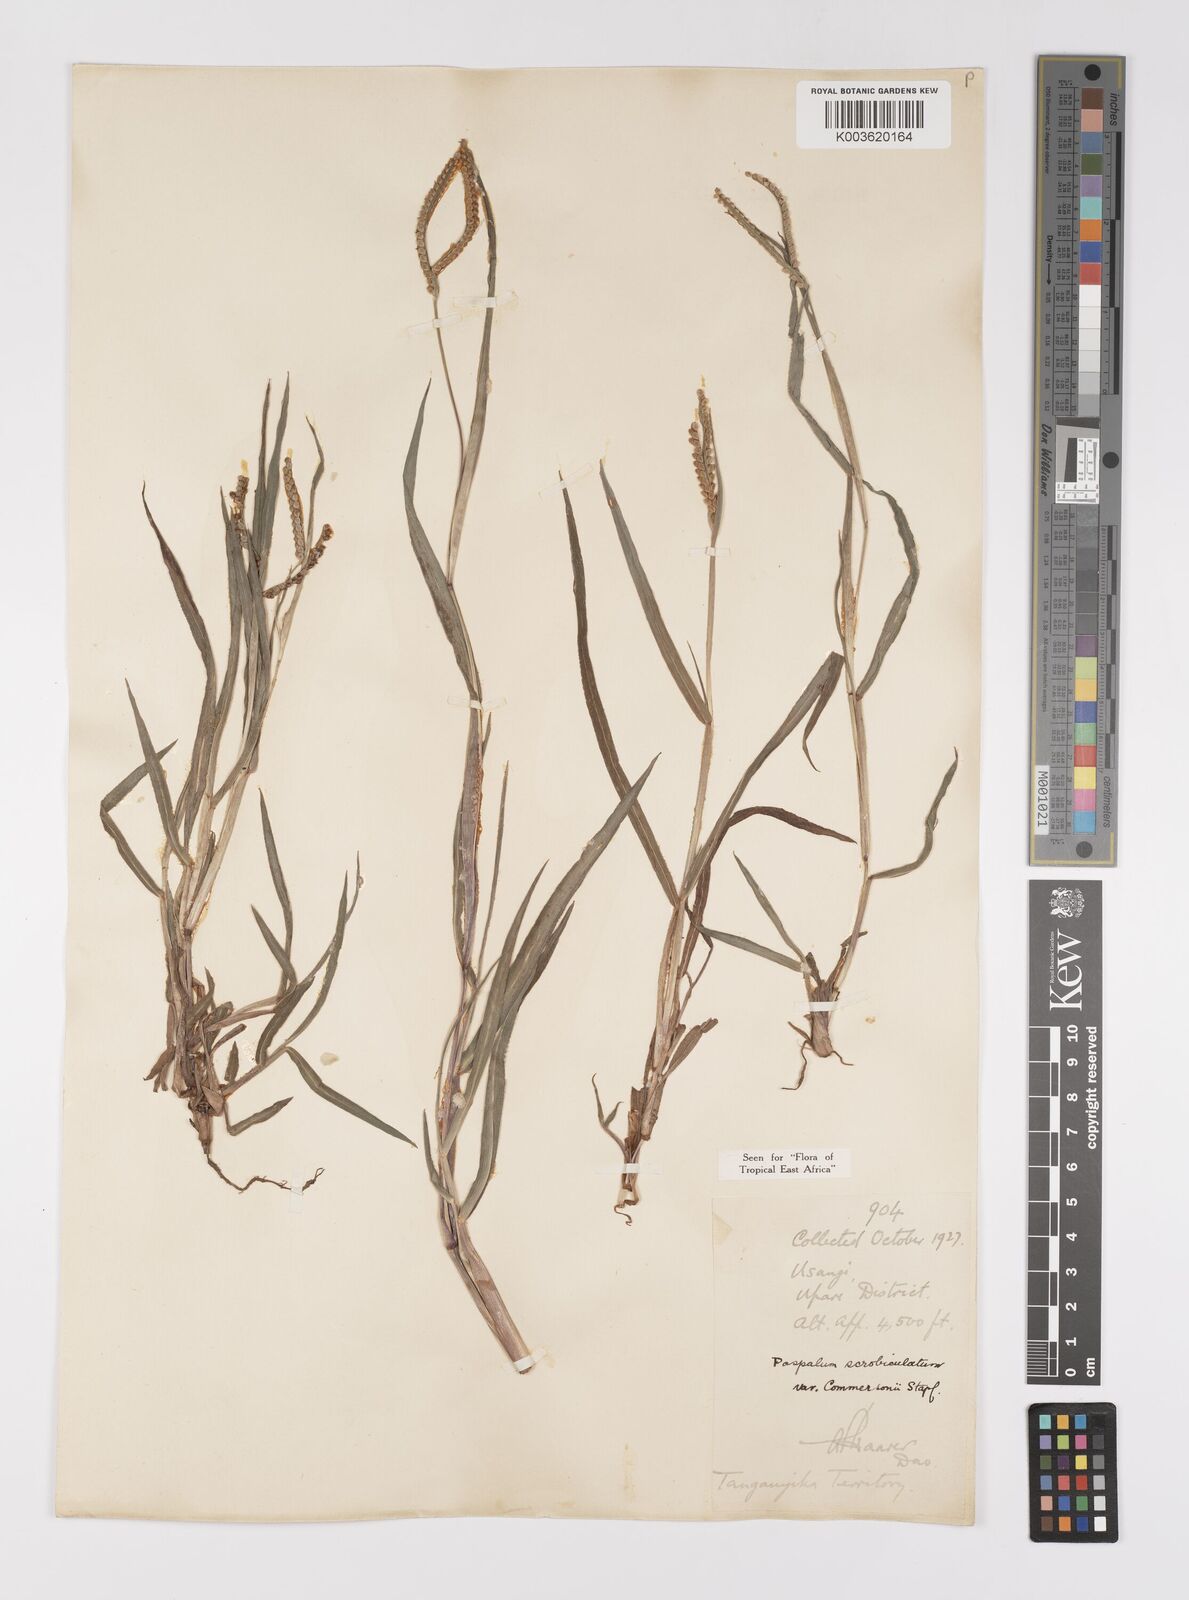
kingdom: Plantae
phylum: Tracheophyta
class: Liliopsida
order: Poales
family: Poaceae
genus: Paspalum
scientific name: Paspalum scrobiculatum
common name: Kodo millet
